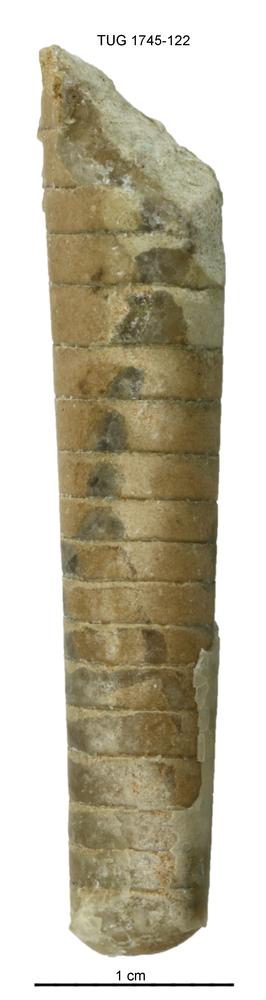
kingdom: Animalia
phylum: Mollusca
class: Cephalopoda
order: Orthocerida
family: Orthoceratidae
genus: Orthoceras
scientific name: Orthoceras
